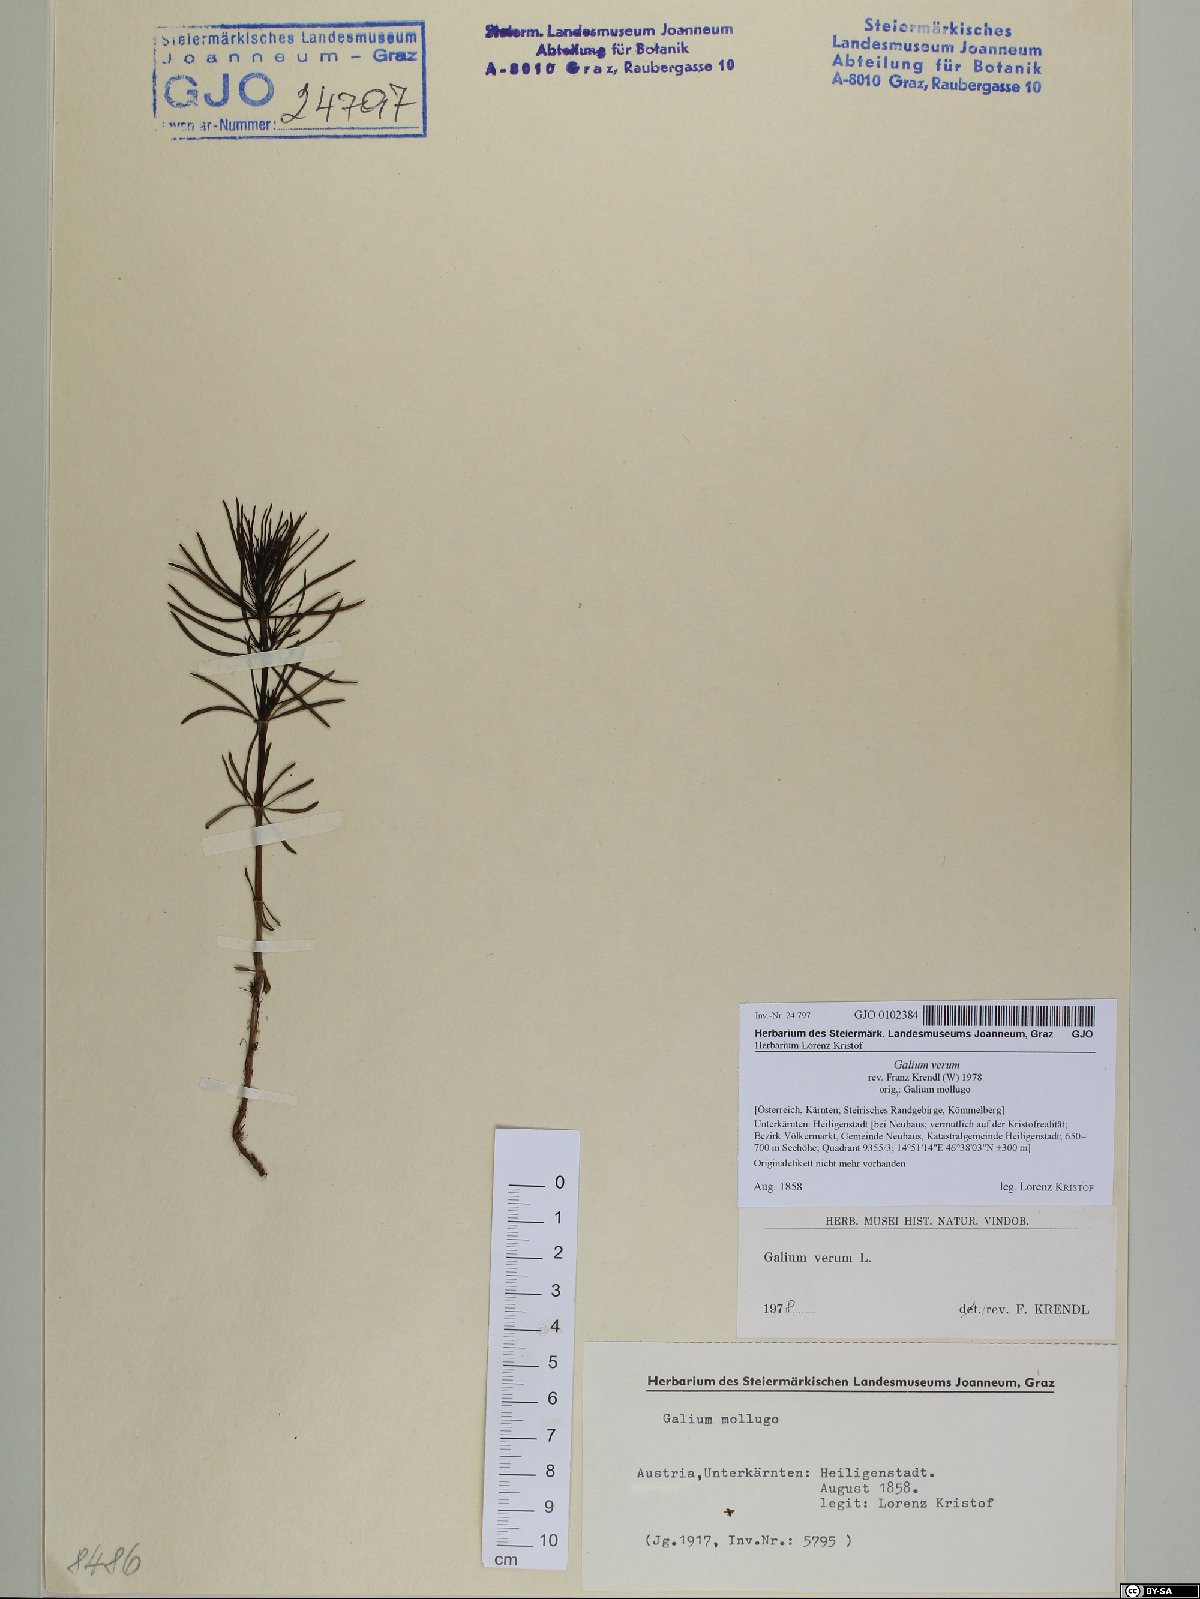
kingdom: Plantae
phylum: Tracheophyta
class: Magnoliopsida
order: Gentianales
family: Rubiaceae
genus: Galium
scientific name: Galium verum
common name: Lady's bedstraw
